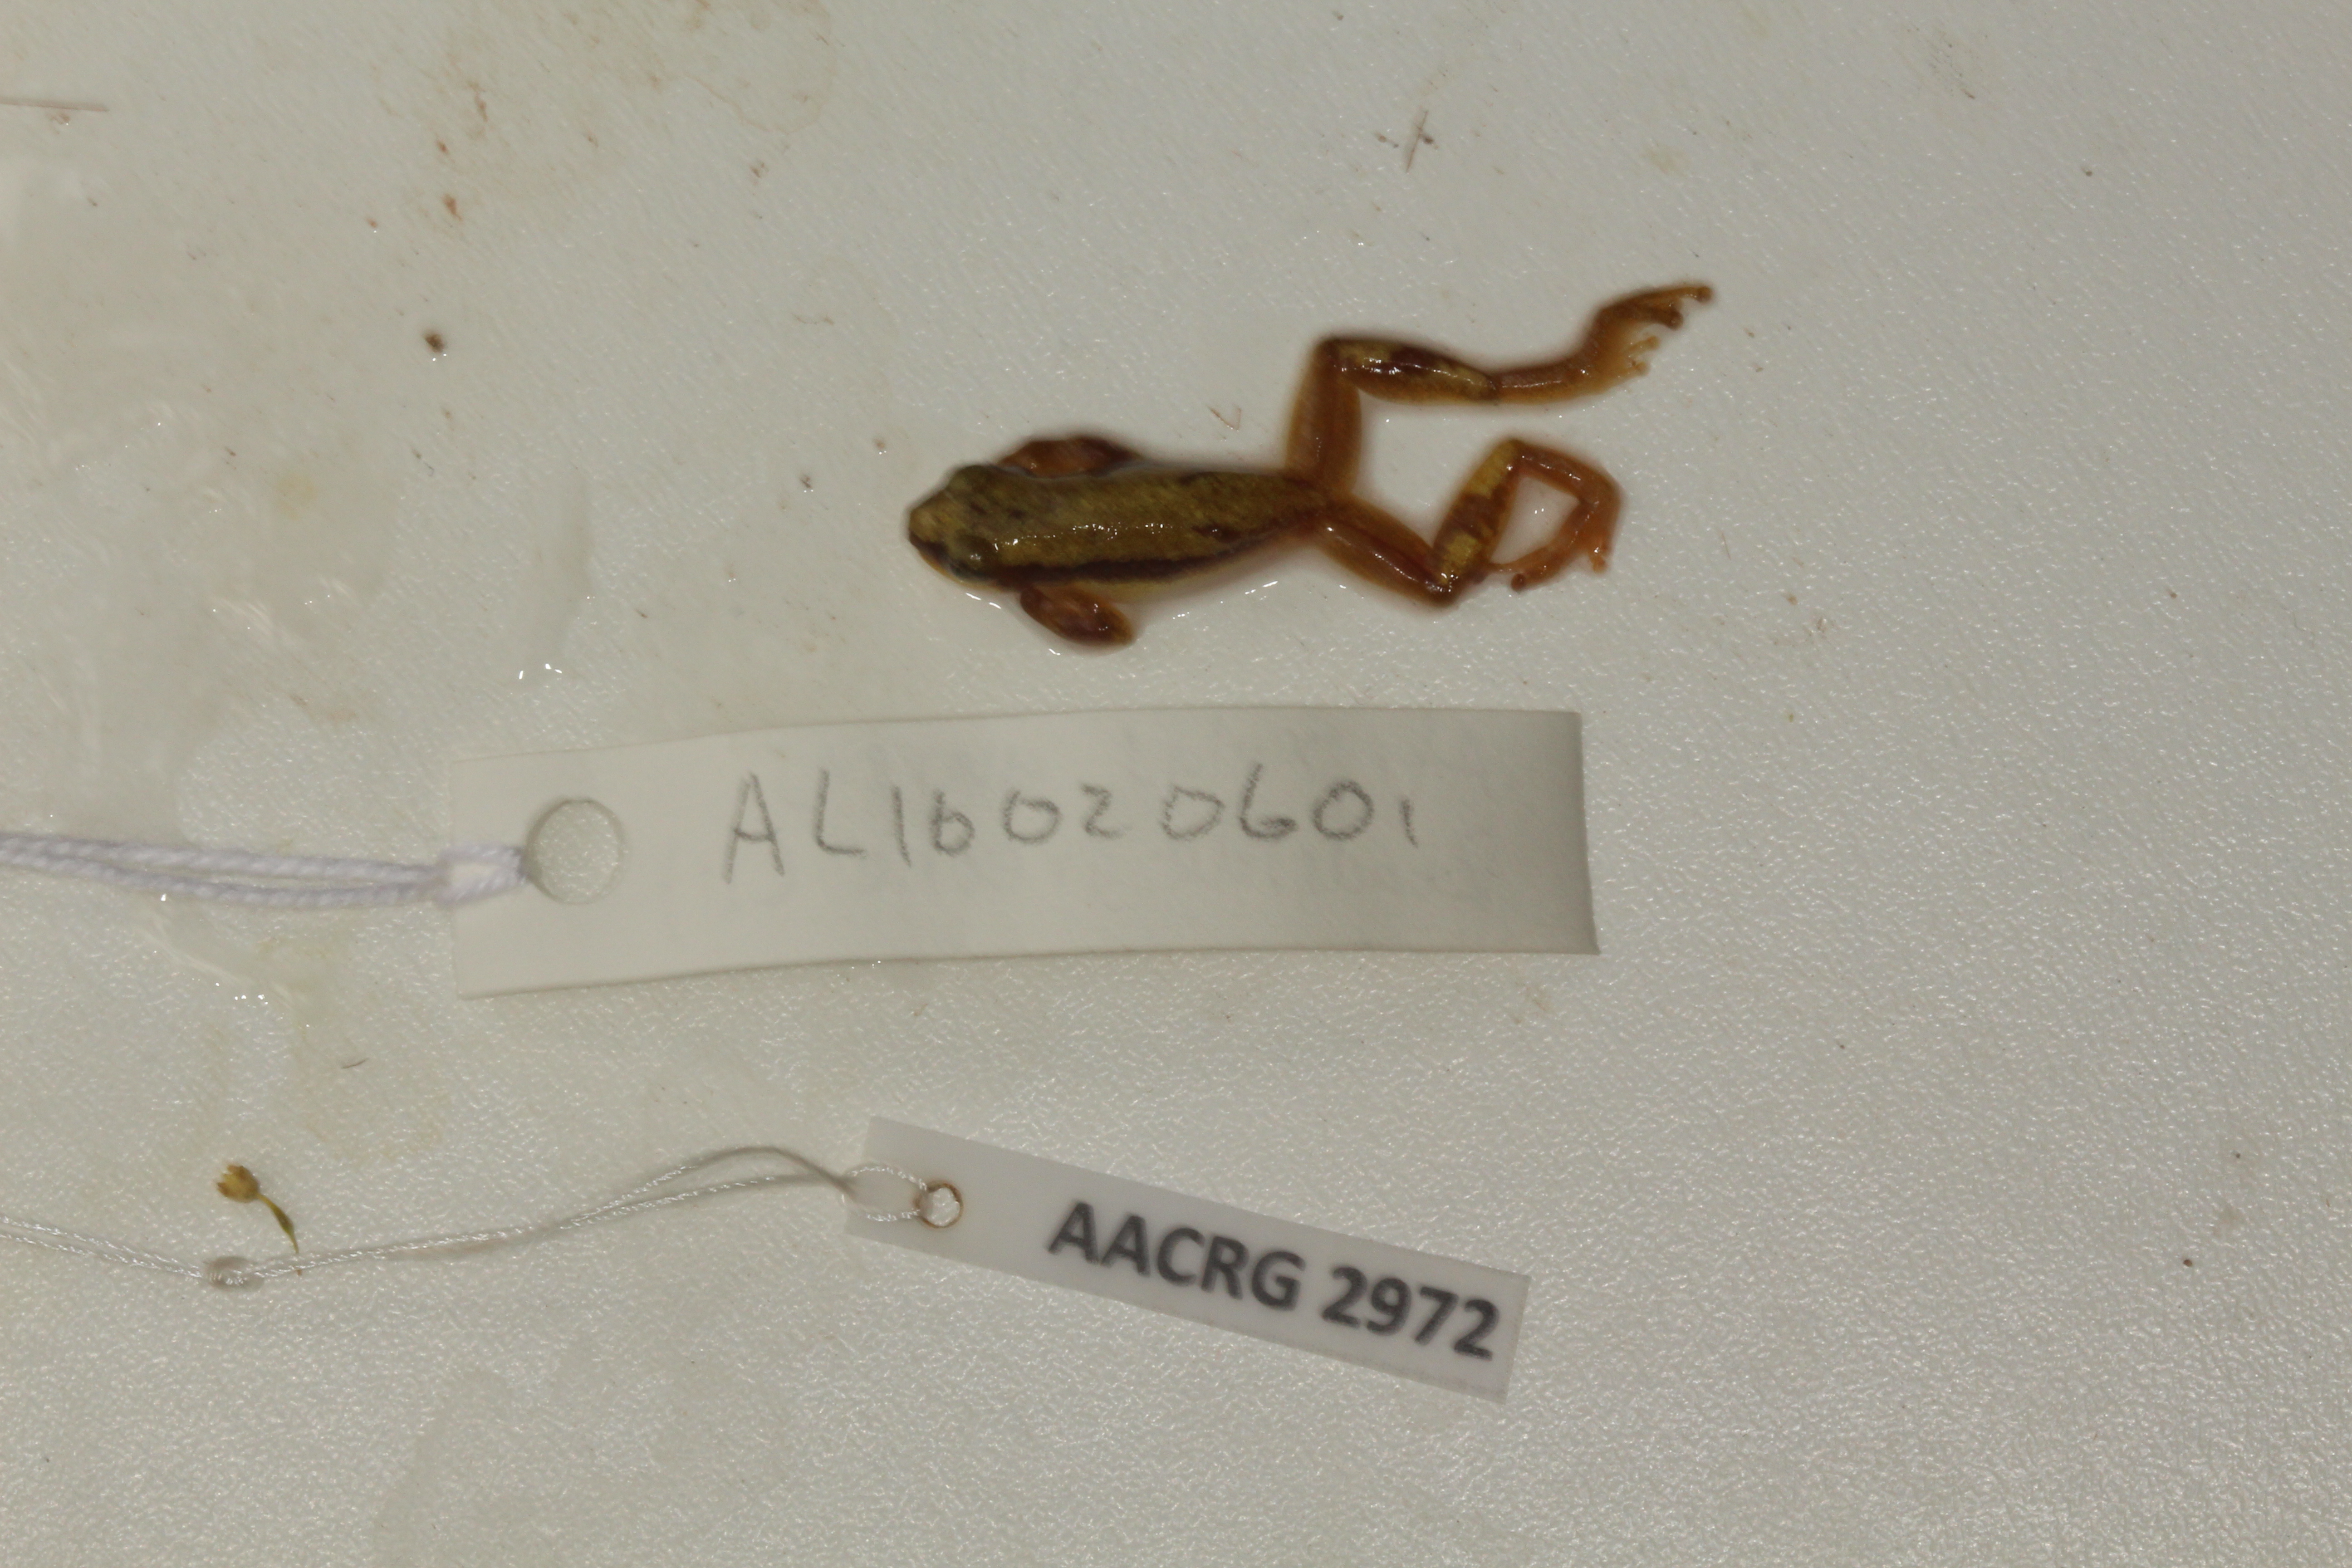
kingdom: Animalia
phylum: Chordata
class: Amphibia
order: Anura
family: Hyperoliidae
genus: Afrixalus
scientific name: Afrixalus aureus
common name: Golden banana frog
